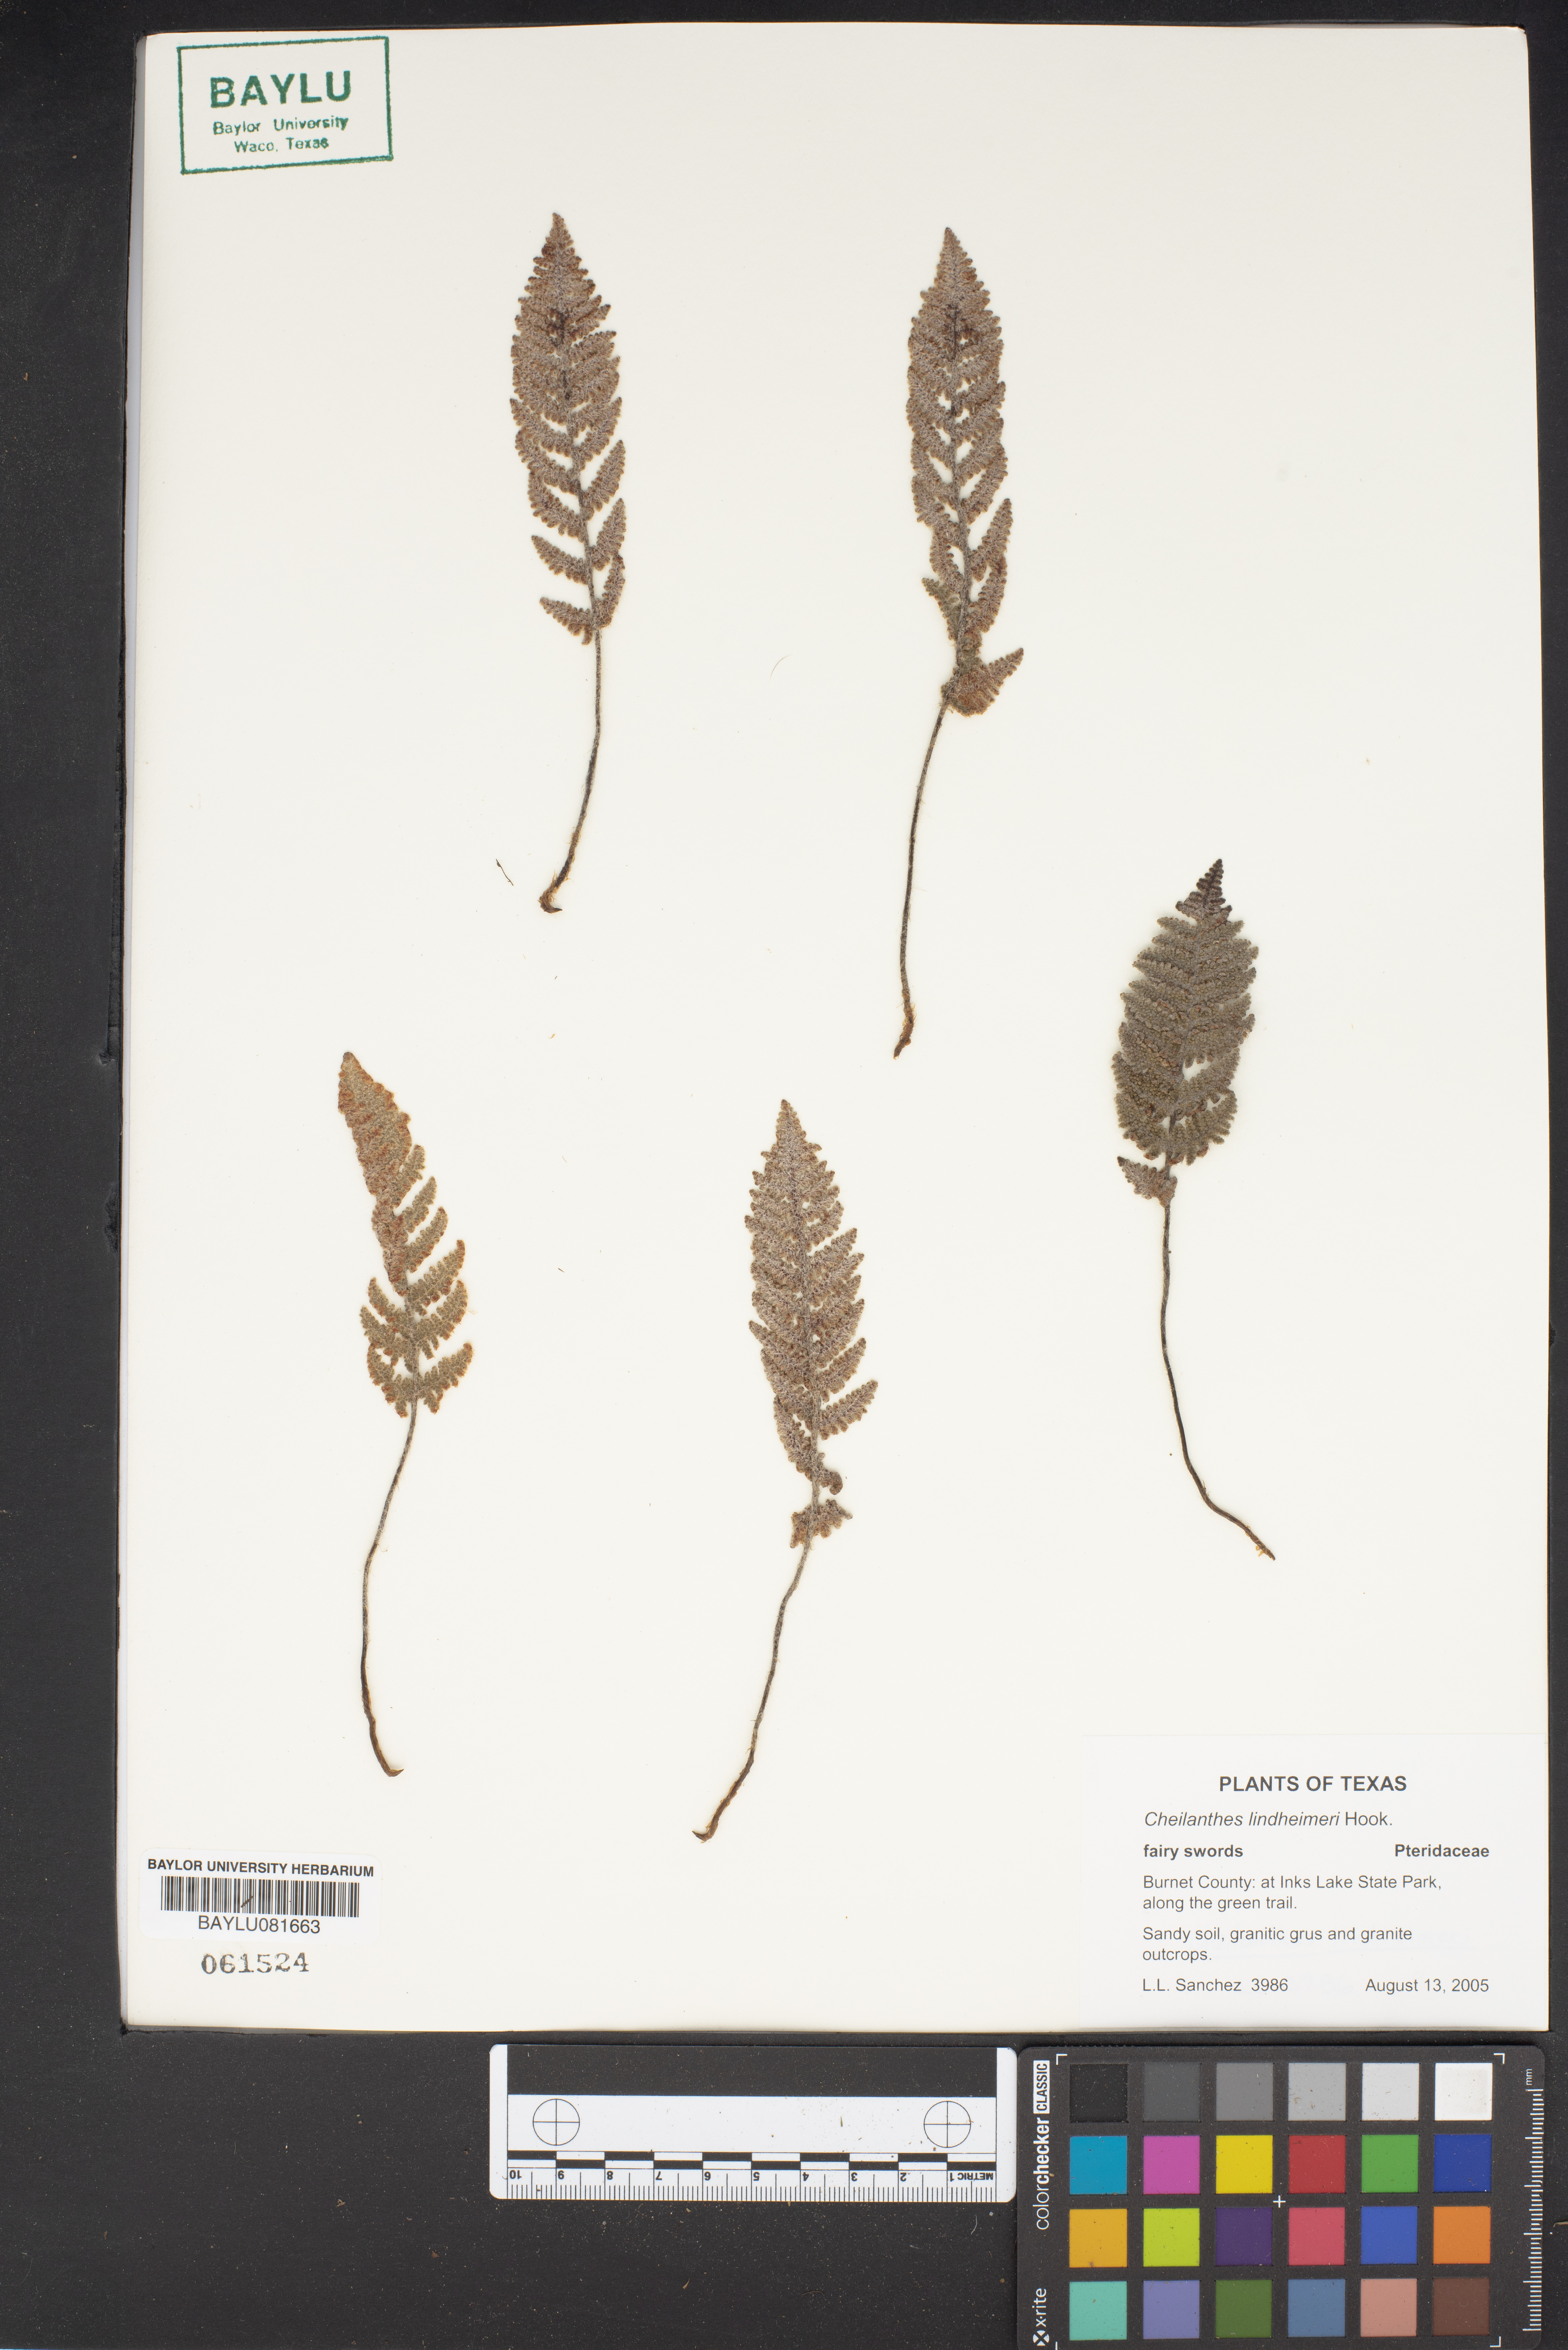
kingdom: Plantae
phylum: Tracheophyta
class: Polypodiopsida
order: Polypodiales
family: Pteridaceae
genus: Myriopteris
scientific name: Myriopteris lindheimeri
